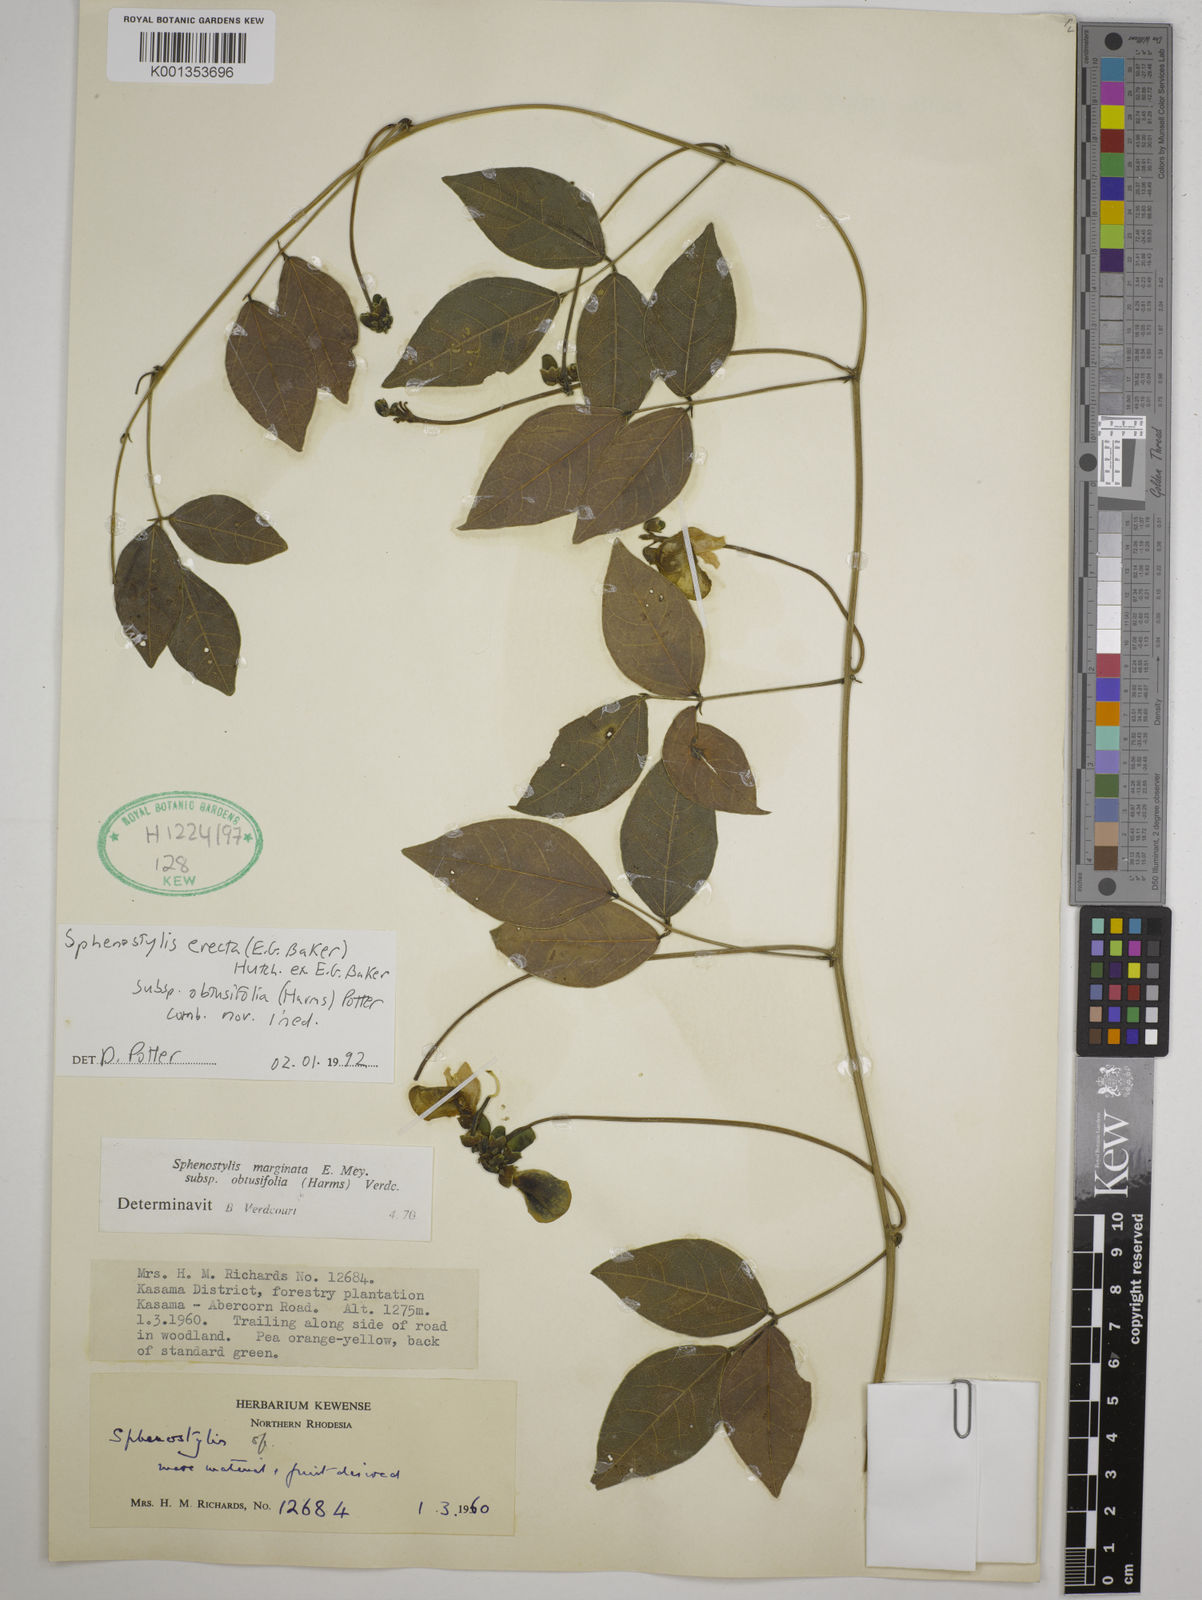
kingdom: Plantae
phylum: Tracheophyta
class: Magnoliopsida
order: Fabales
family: Fabaceae
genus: Sphenostylis
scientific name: Sphenostylis erecta
